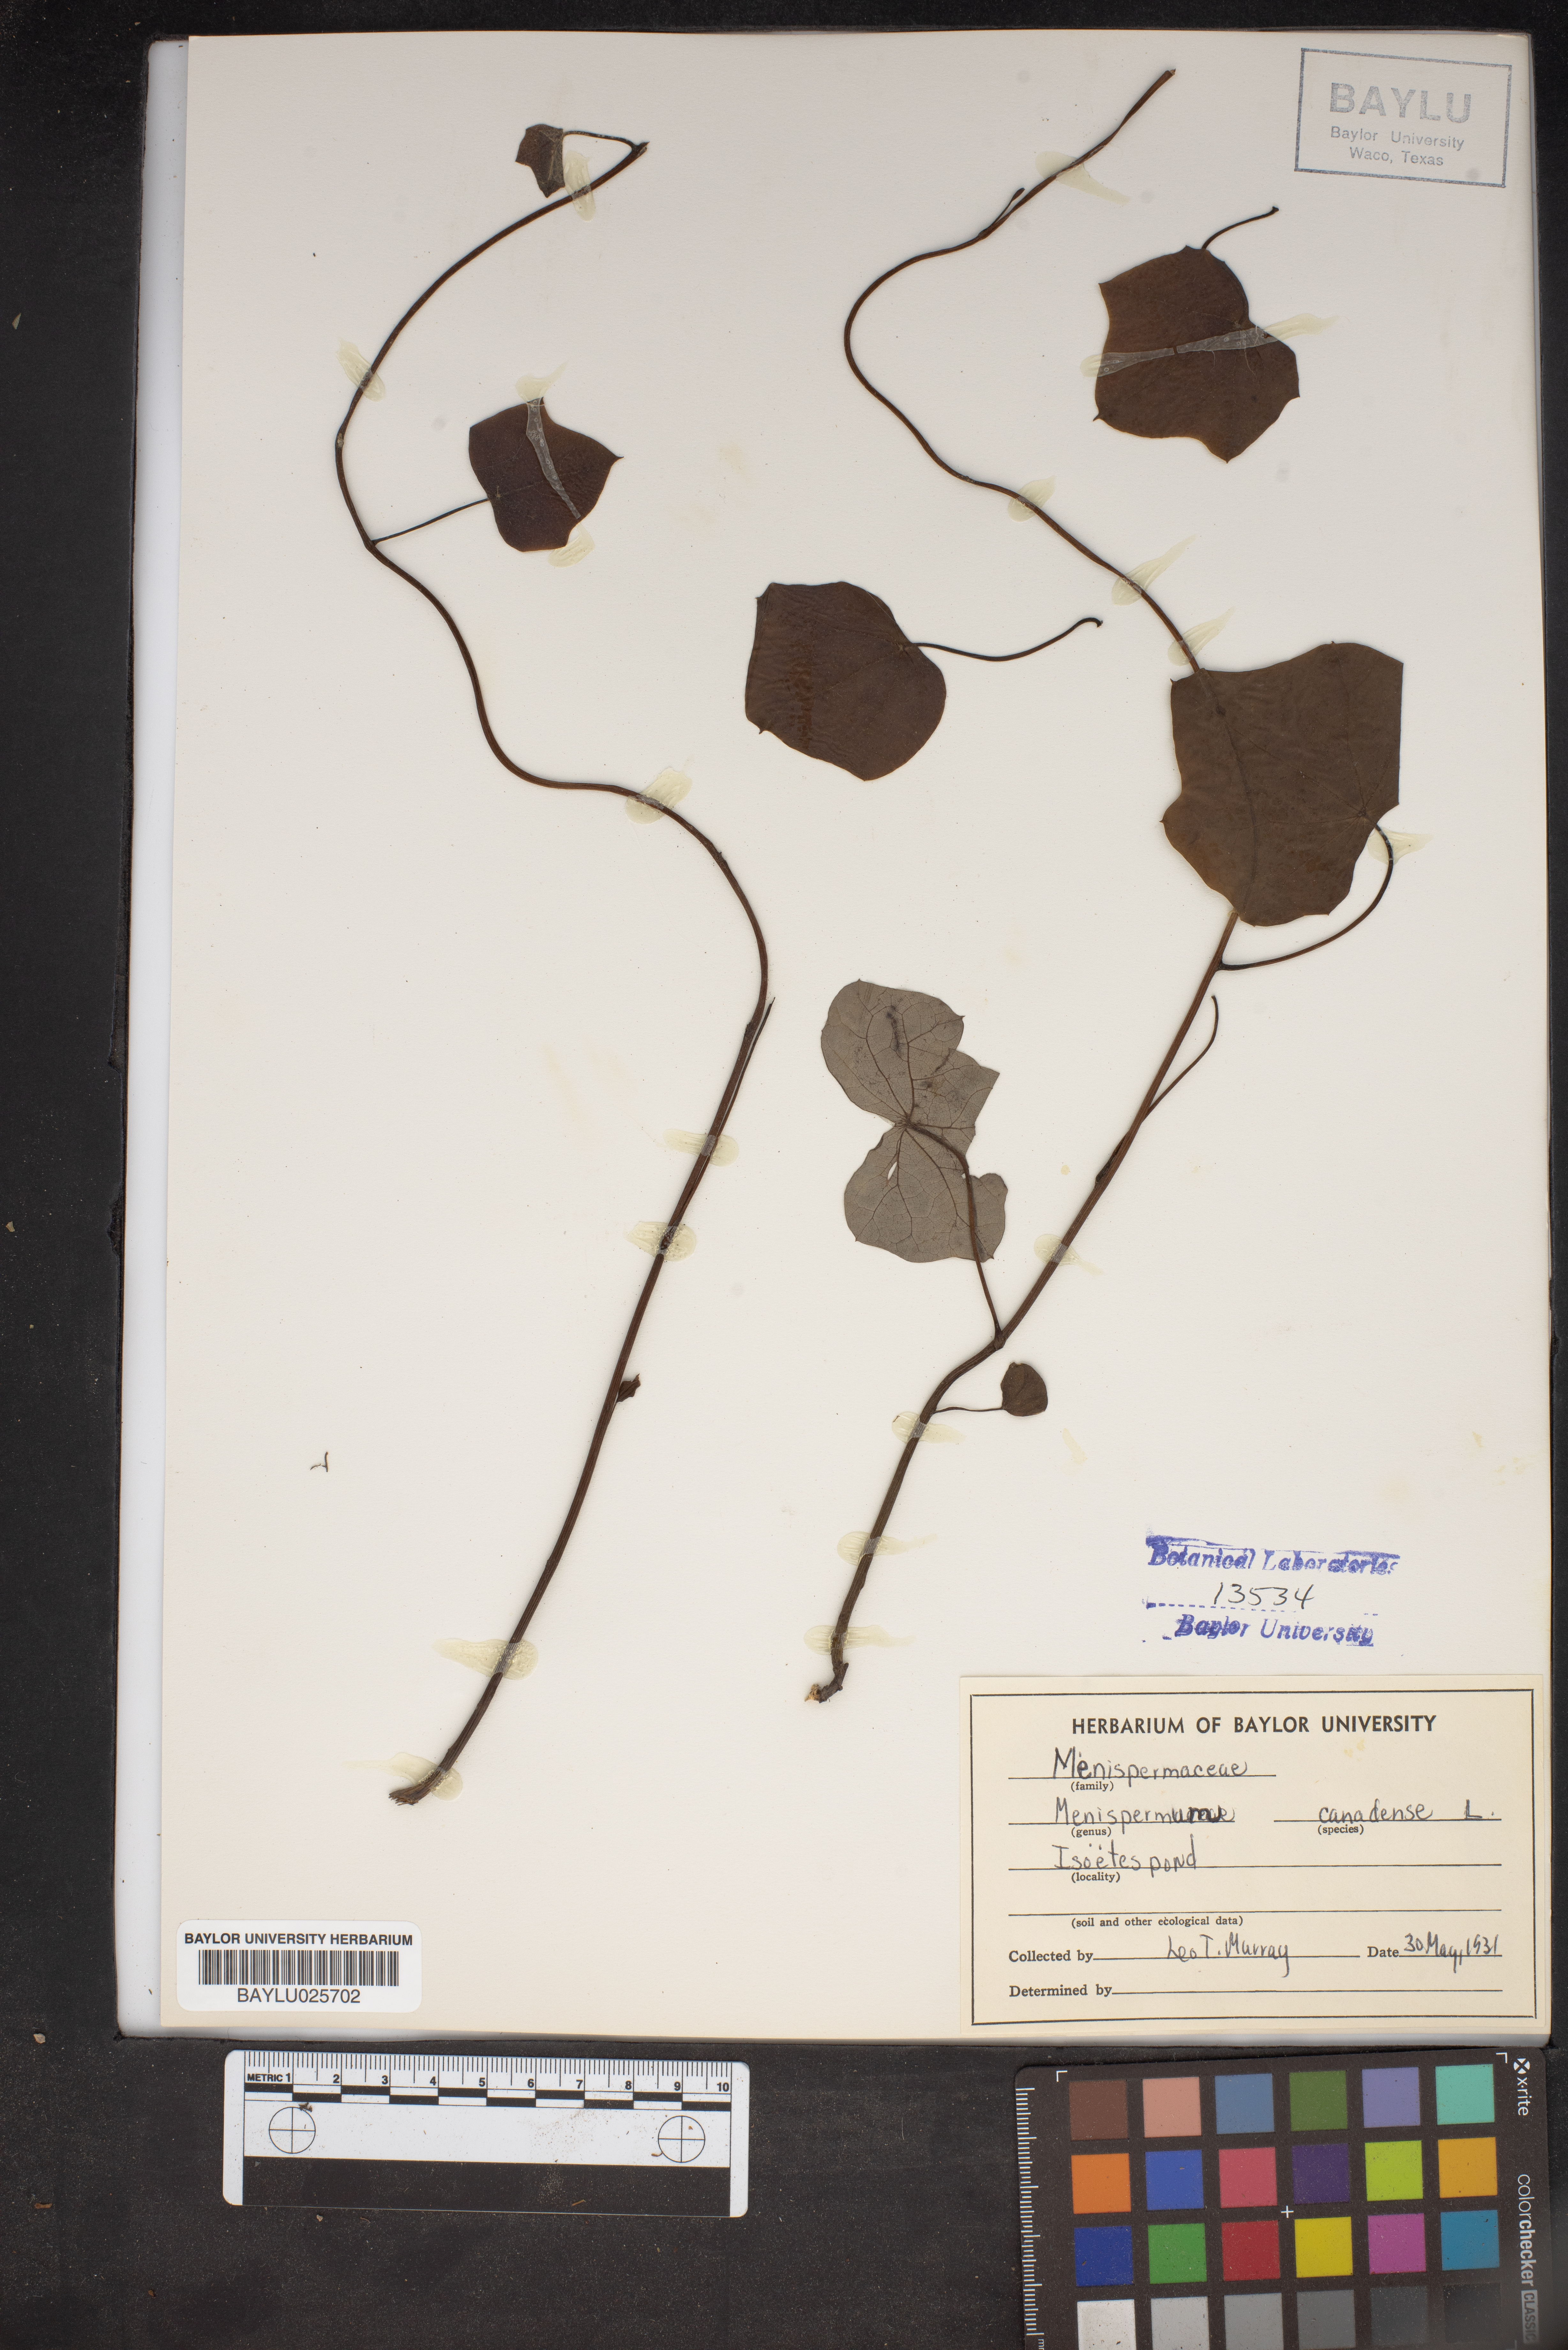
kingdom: Plantae
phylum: Tracheophyta
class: Magnoliopsida
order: Ranunculales
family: Menispermaceae
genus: Menispermum
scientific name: Menispermum canadense
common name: Moonseed
